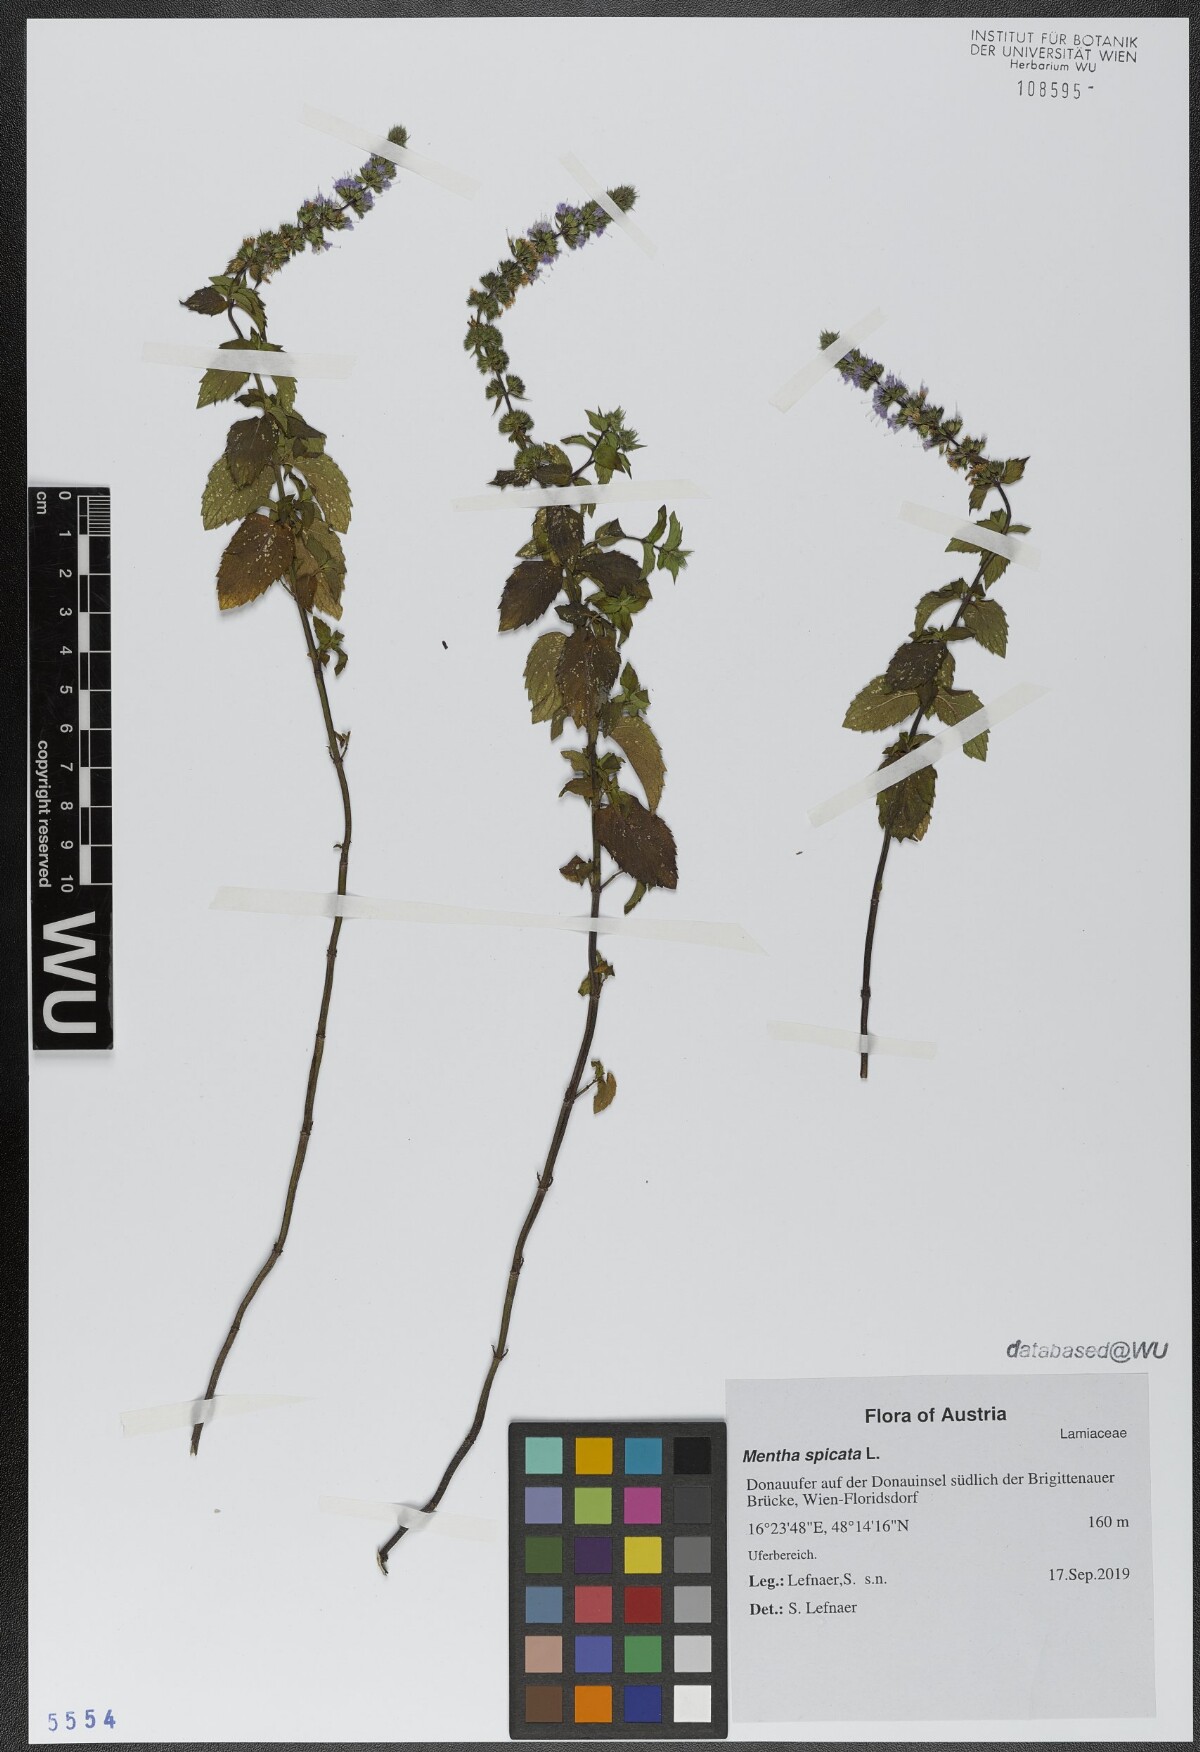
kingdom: Plantae
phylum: Tracheophyta
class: Magnoliopsida
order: Lamiales
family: Lamiaceae
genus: Mentha
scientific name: Mentha spicata
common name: Spearmint
